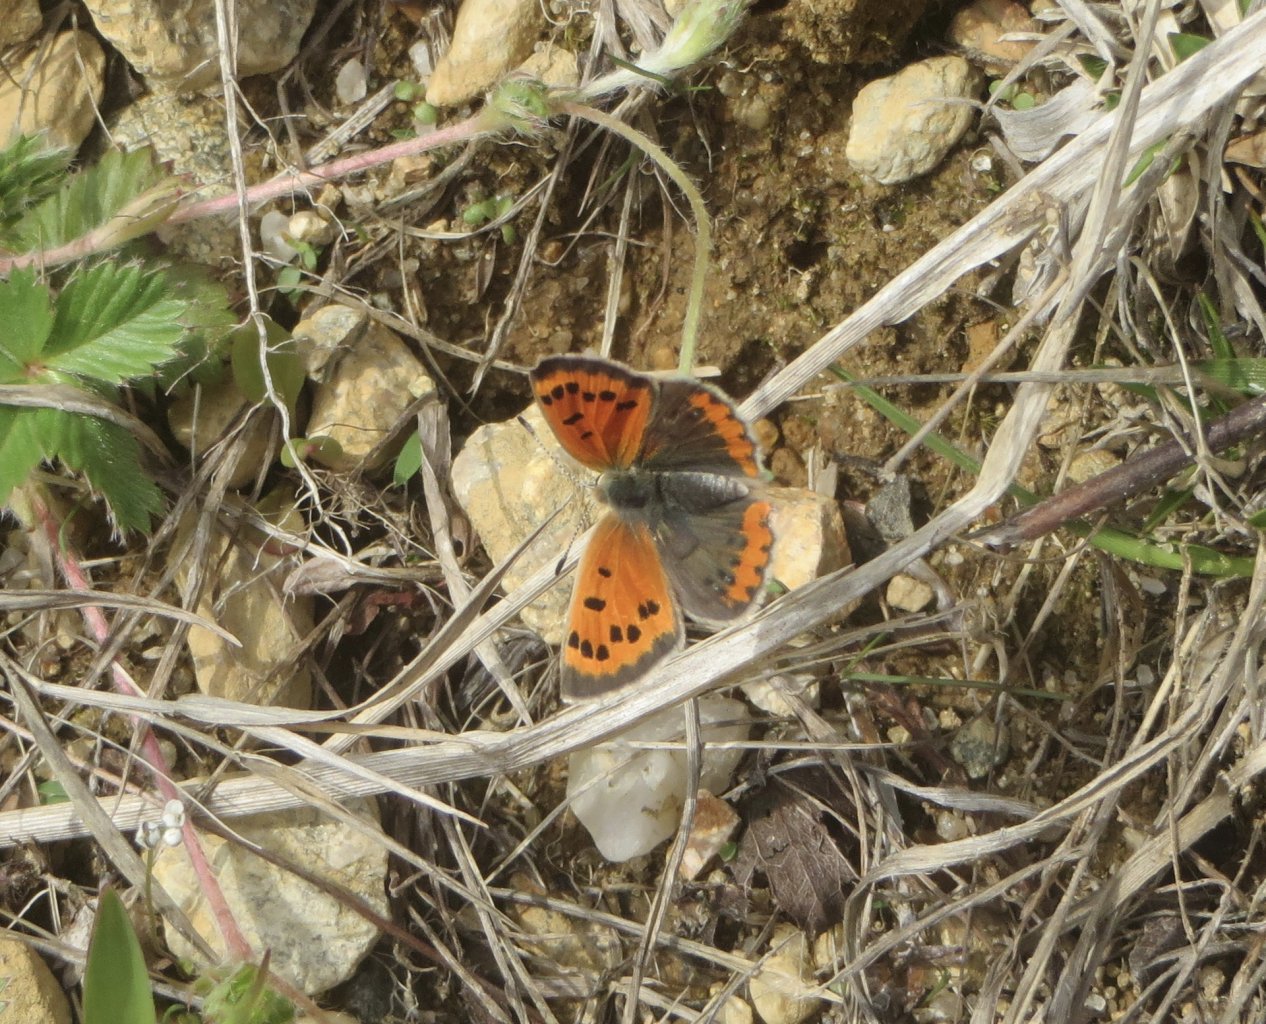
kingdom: Animalia
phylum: Arthropoda
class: Insecta
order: Lepidoptera
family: Lycaenidae
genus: Lycaena
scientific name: Lycaena phlaeas
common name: American Copper
